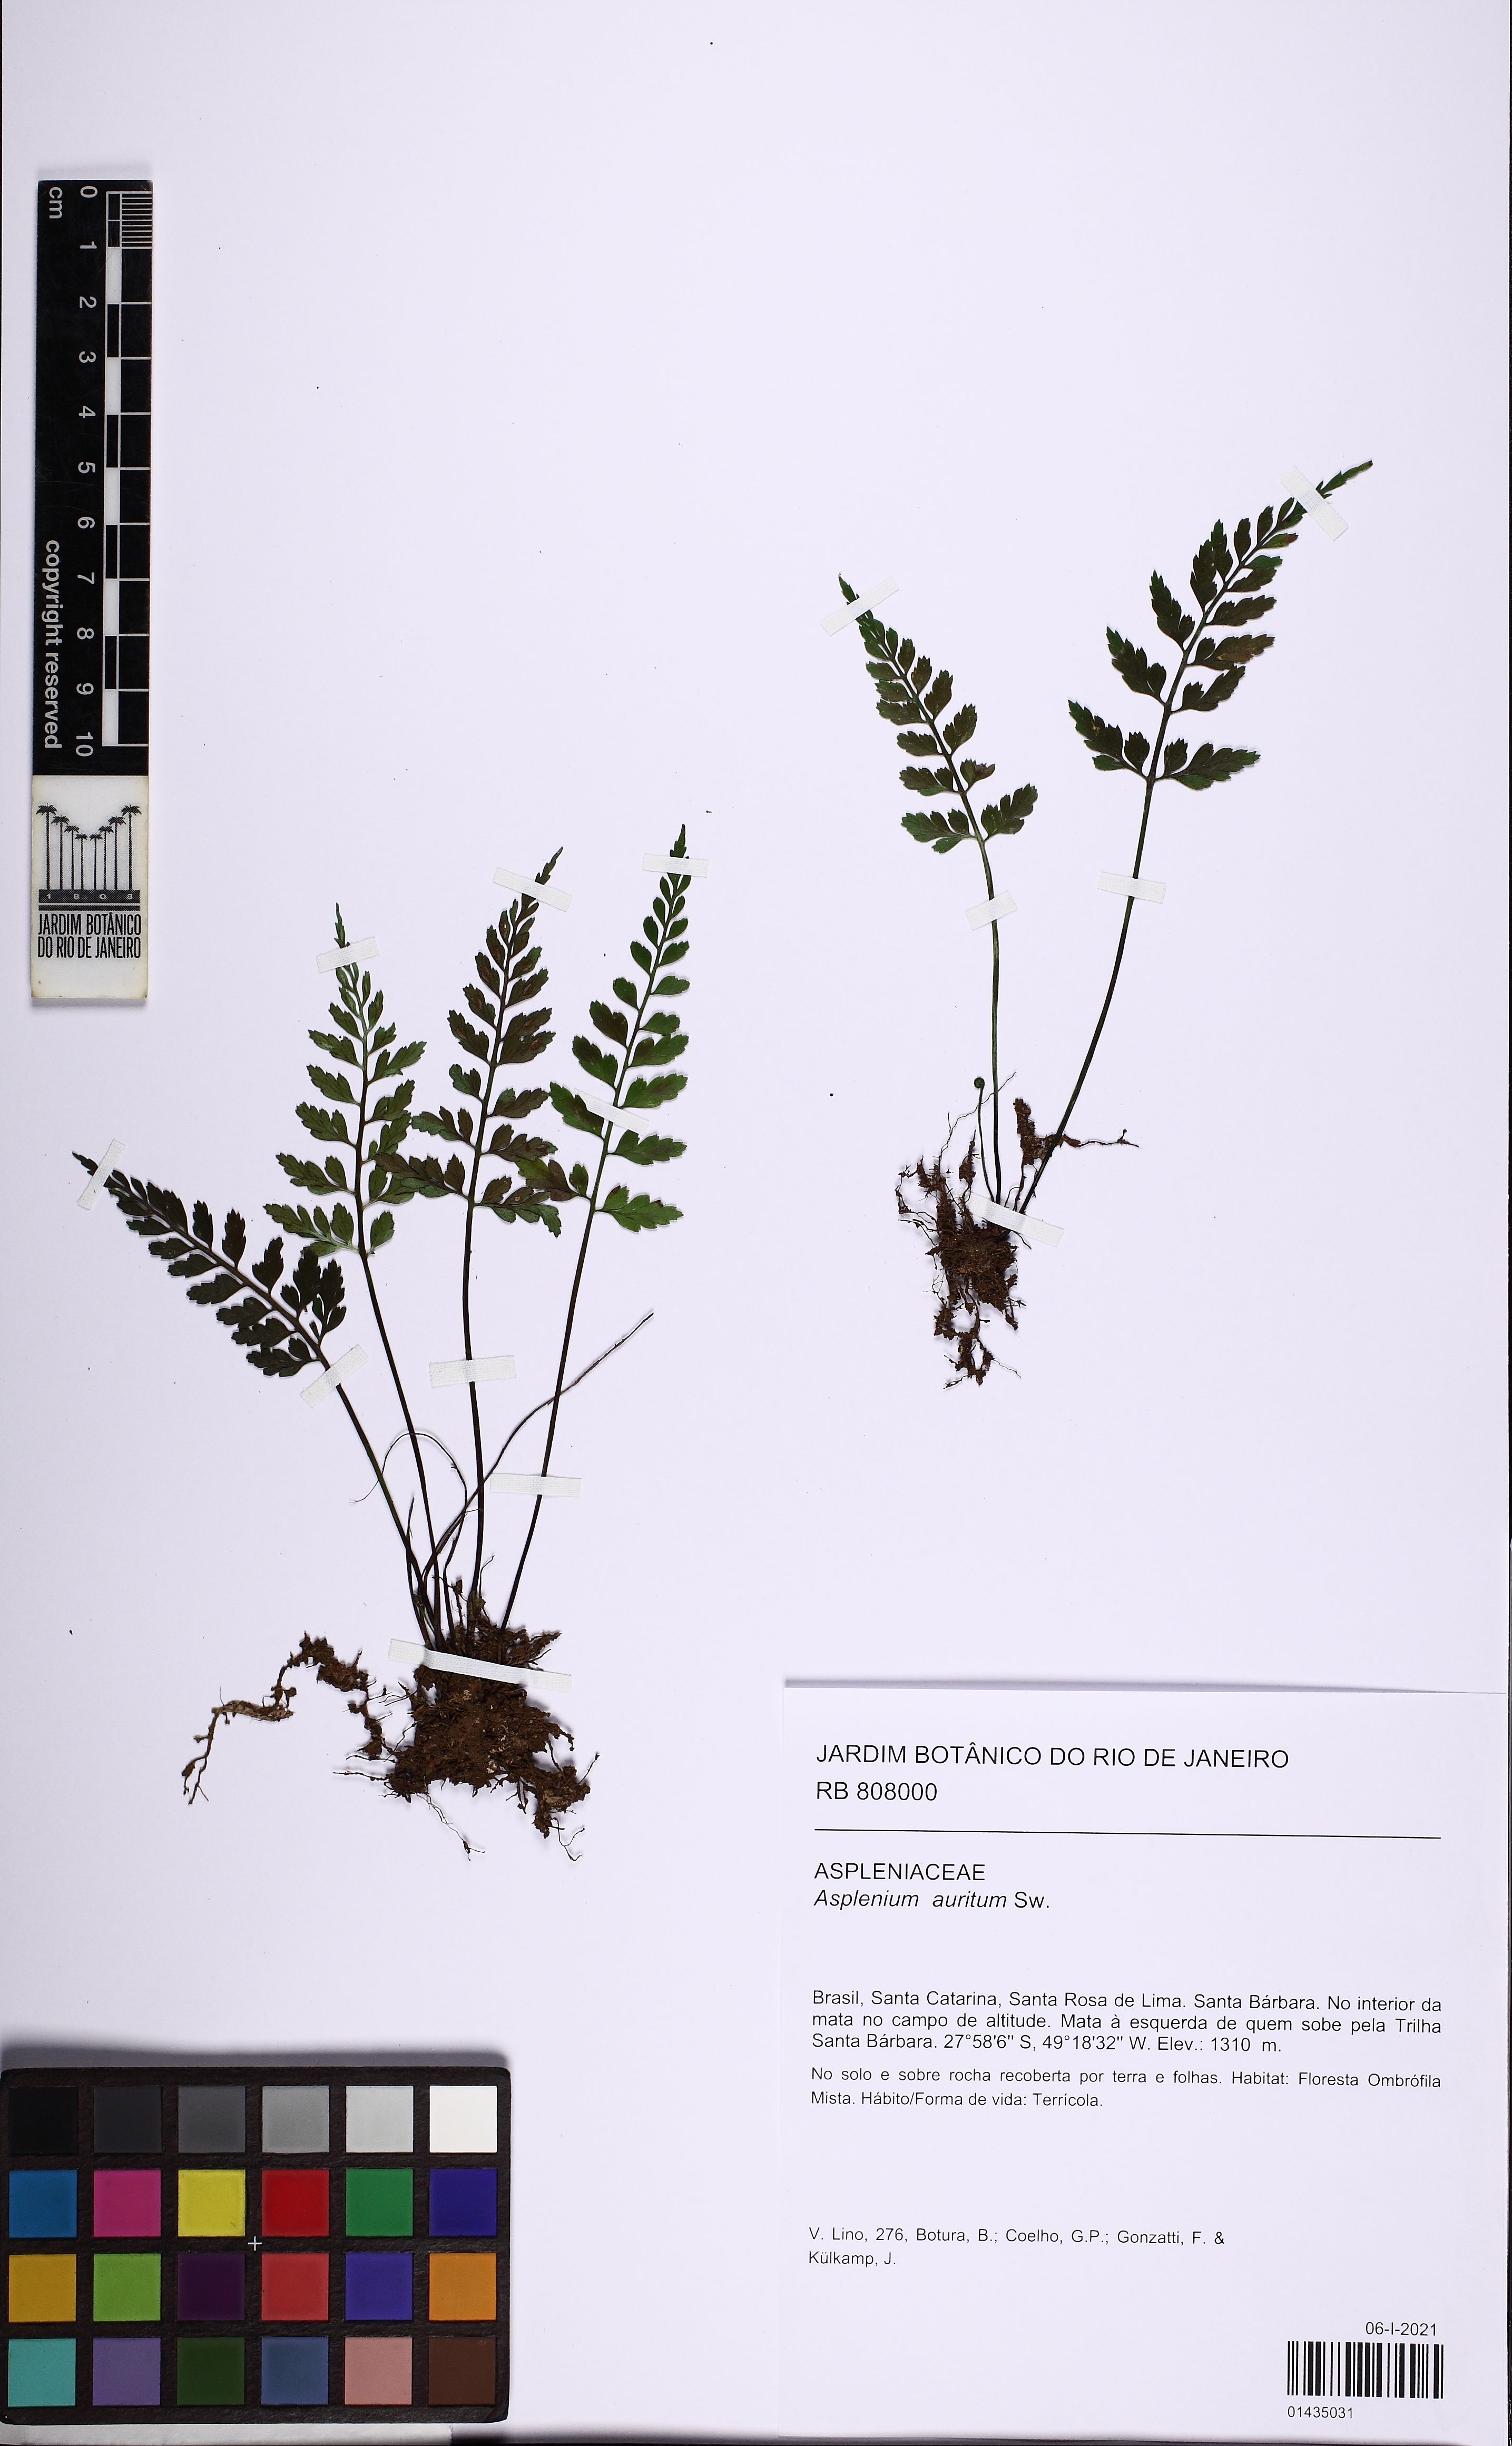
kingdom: Plantae
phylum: Tracheophyta
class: Polypodiopsida
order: Polypodiales
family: Aspleniaceae
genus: Asplenium
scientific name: Asplenium auritum
